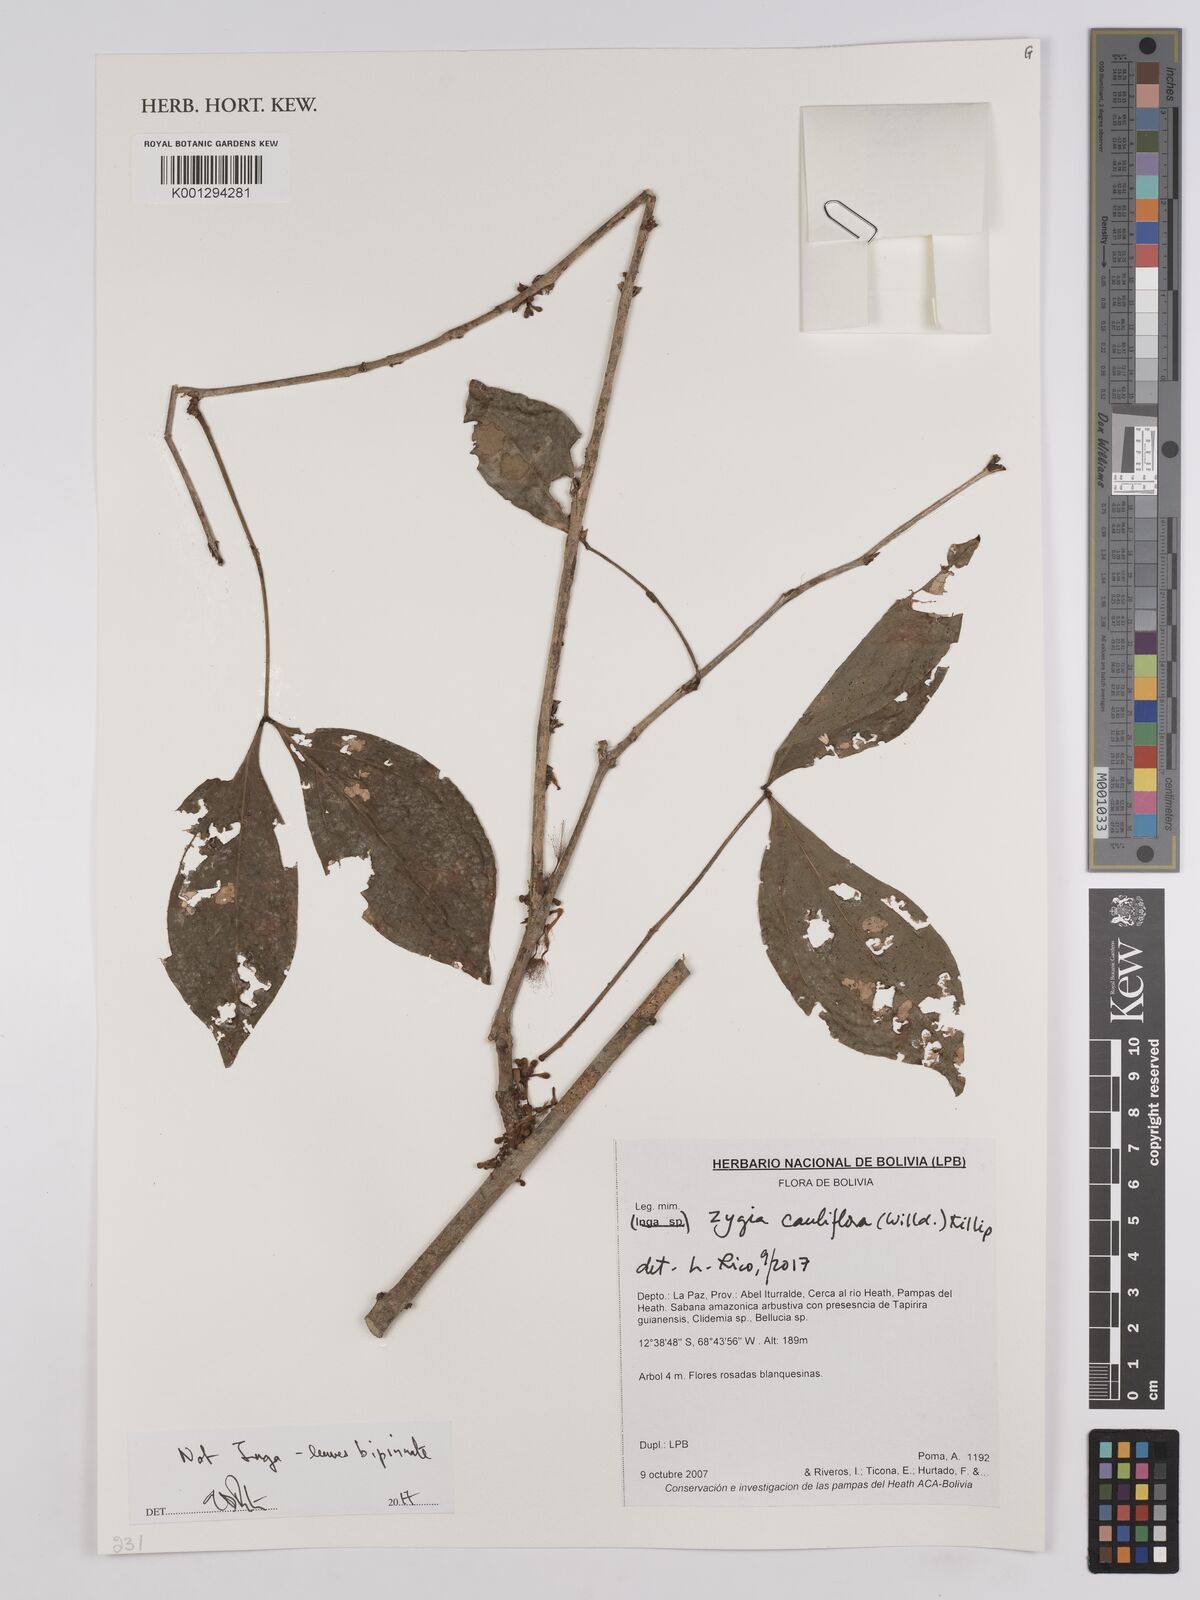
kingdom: Plantae
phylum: Tracheophyta
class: Magnoliopsida
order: Fabales
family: Fabaceae
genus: Zygia
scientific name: Zygia
